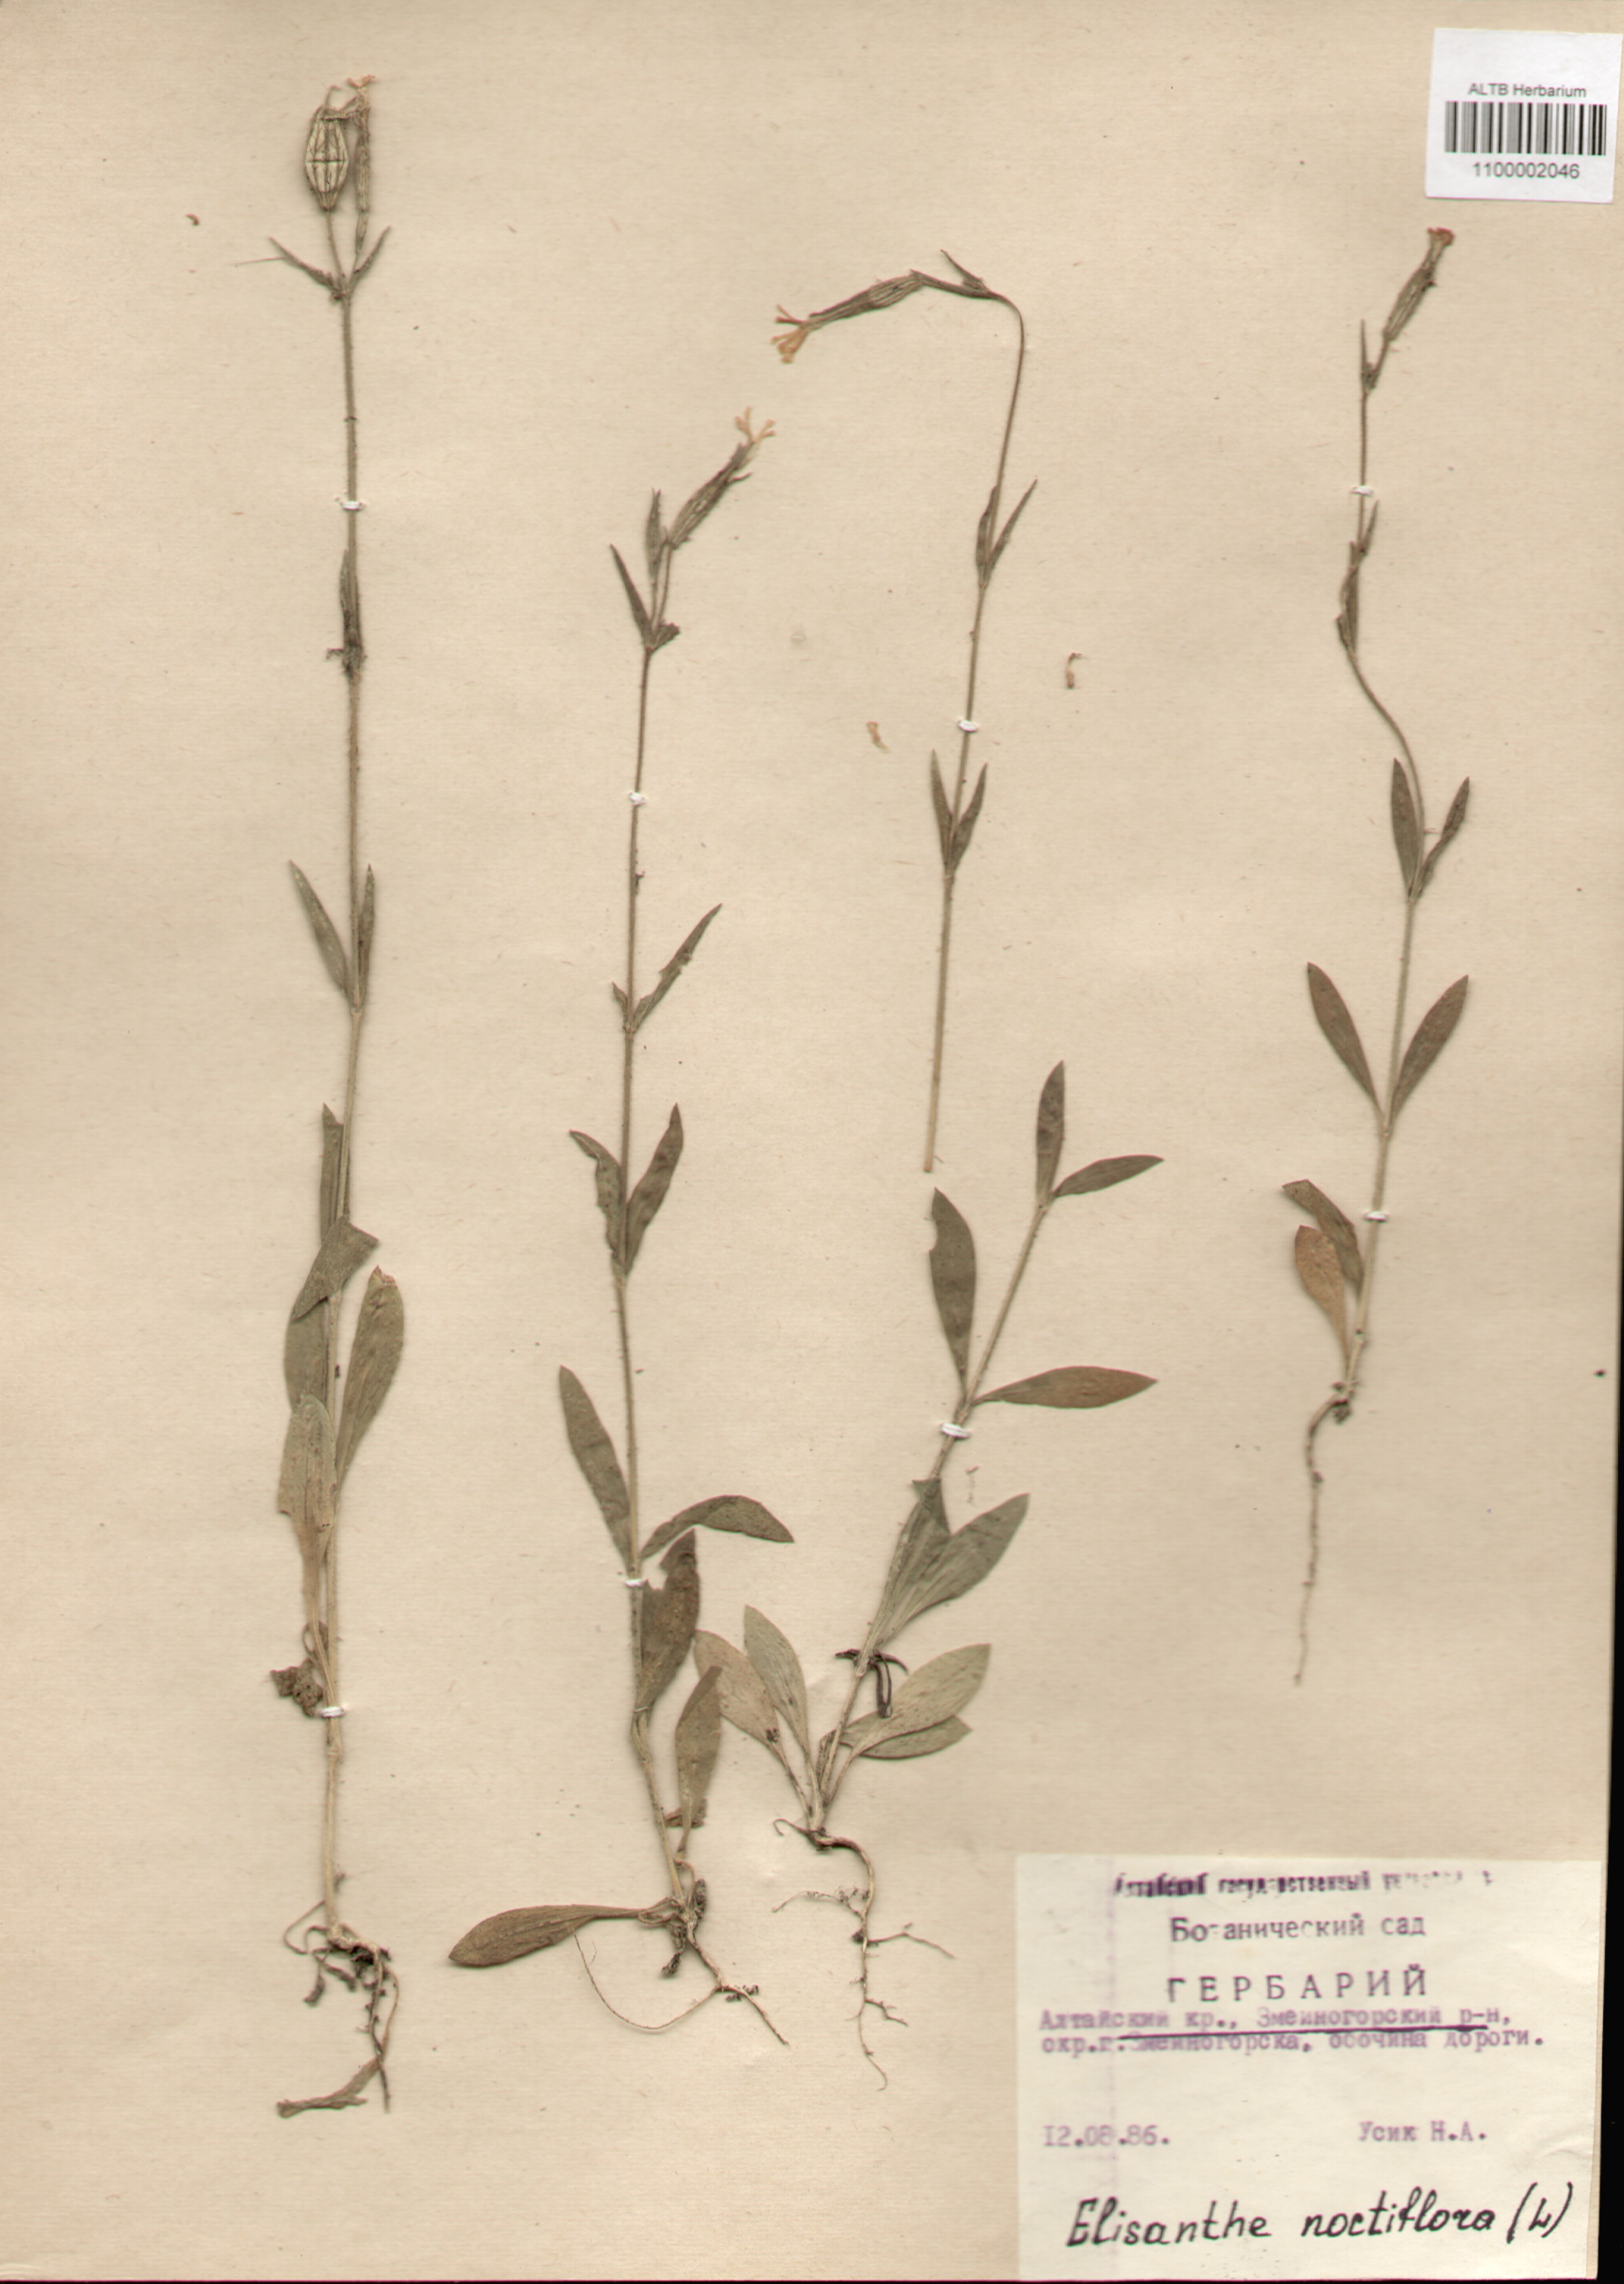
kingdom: Plantae
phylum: Tracheophyta
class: Magnoliopsida
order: Caryophyllales
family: Caryophyllaceae
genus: Silene
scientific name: Silene noctiflora
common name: Night-flowering catchfly
